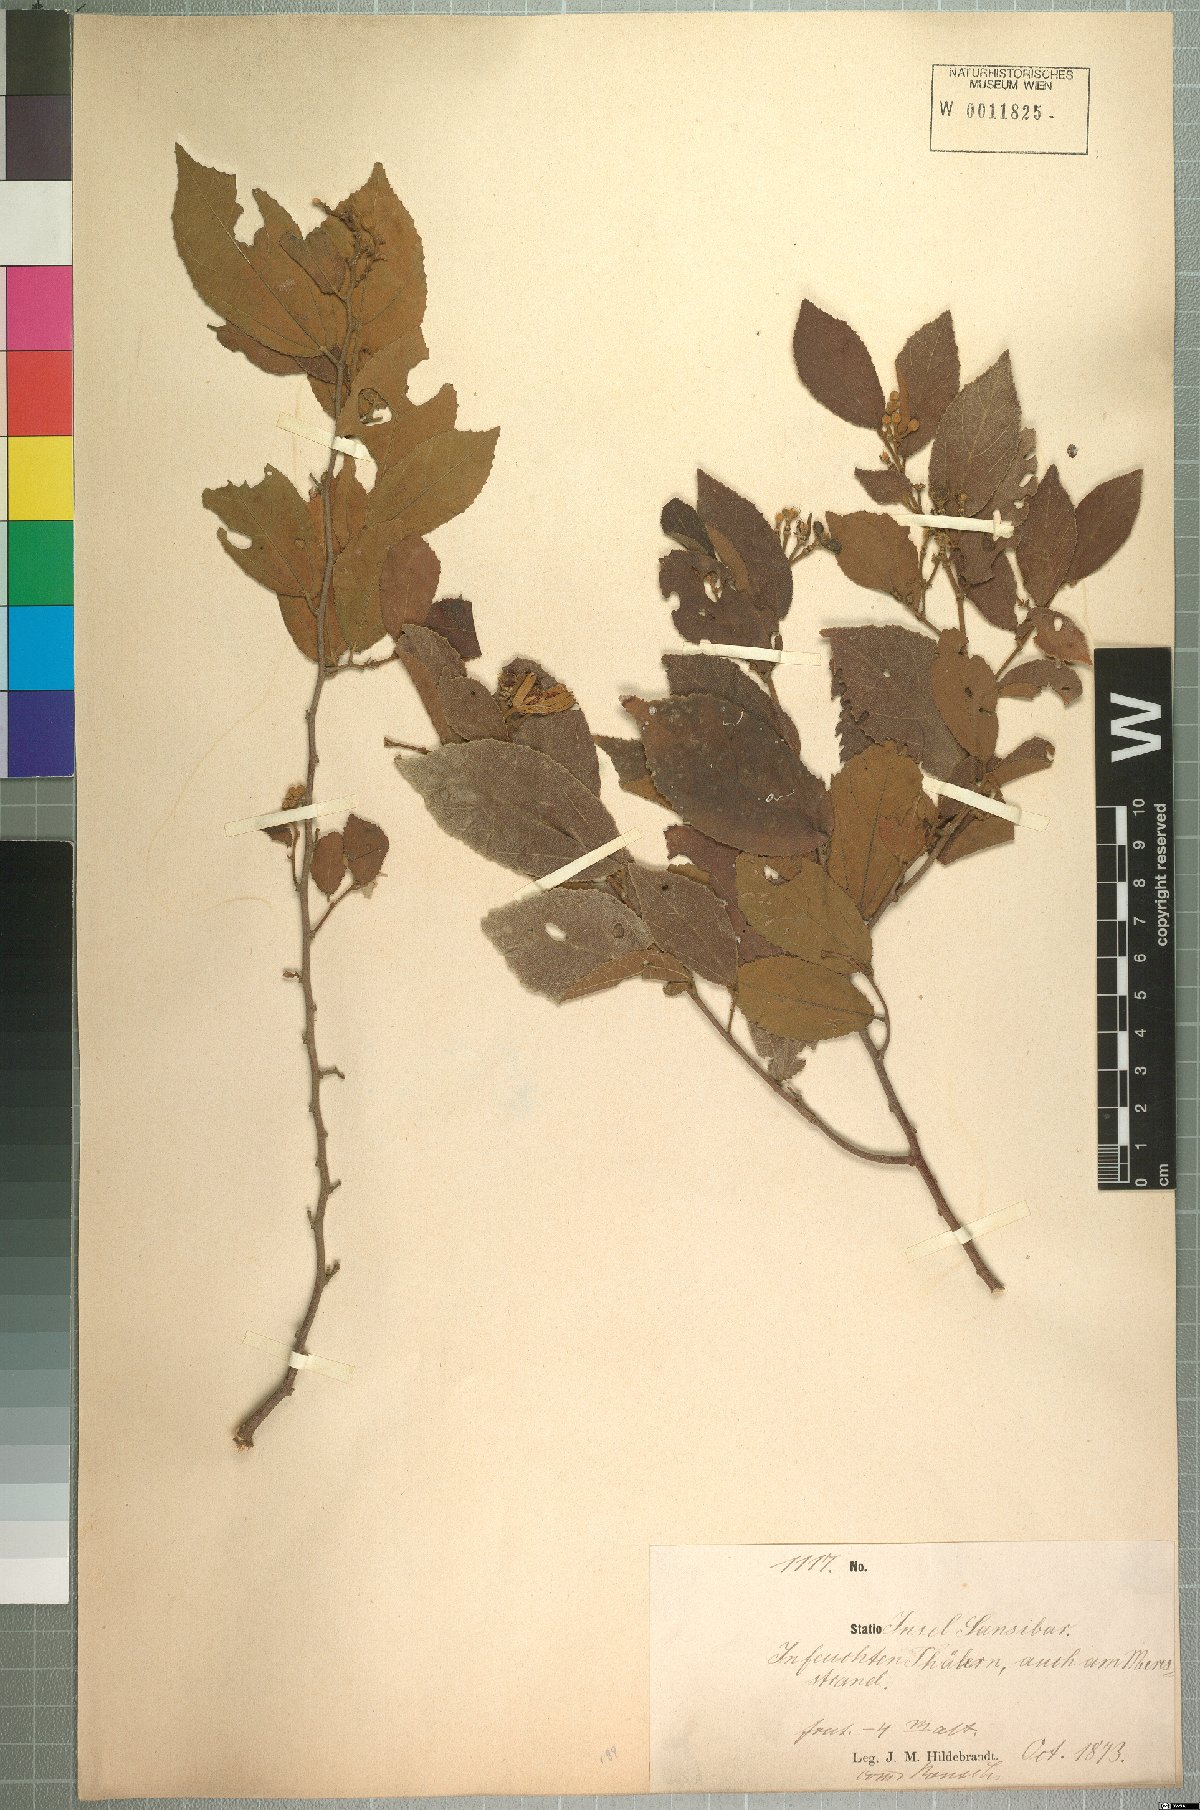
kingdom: Plantae
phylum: Tracheophyta
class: Magnoliopsida
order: Malvales
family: Malvaceae
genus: Grewia
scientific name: Grewia capitellata
